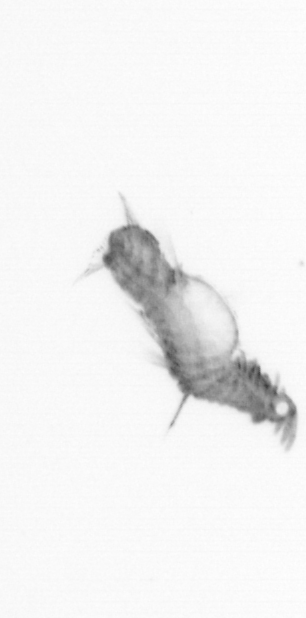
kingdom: Animalia
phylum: Annelida
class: Polychaeta
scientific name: Polychaeta
